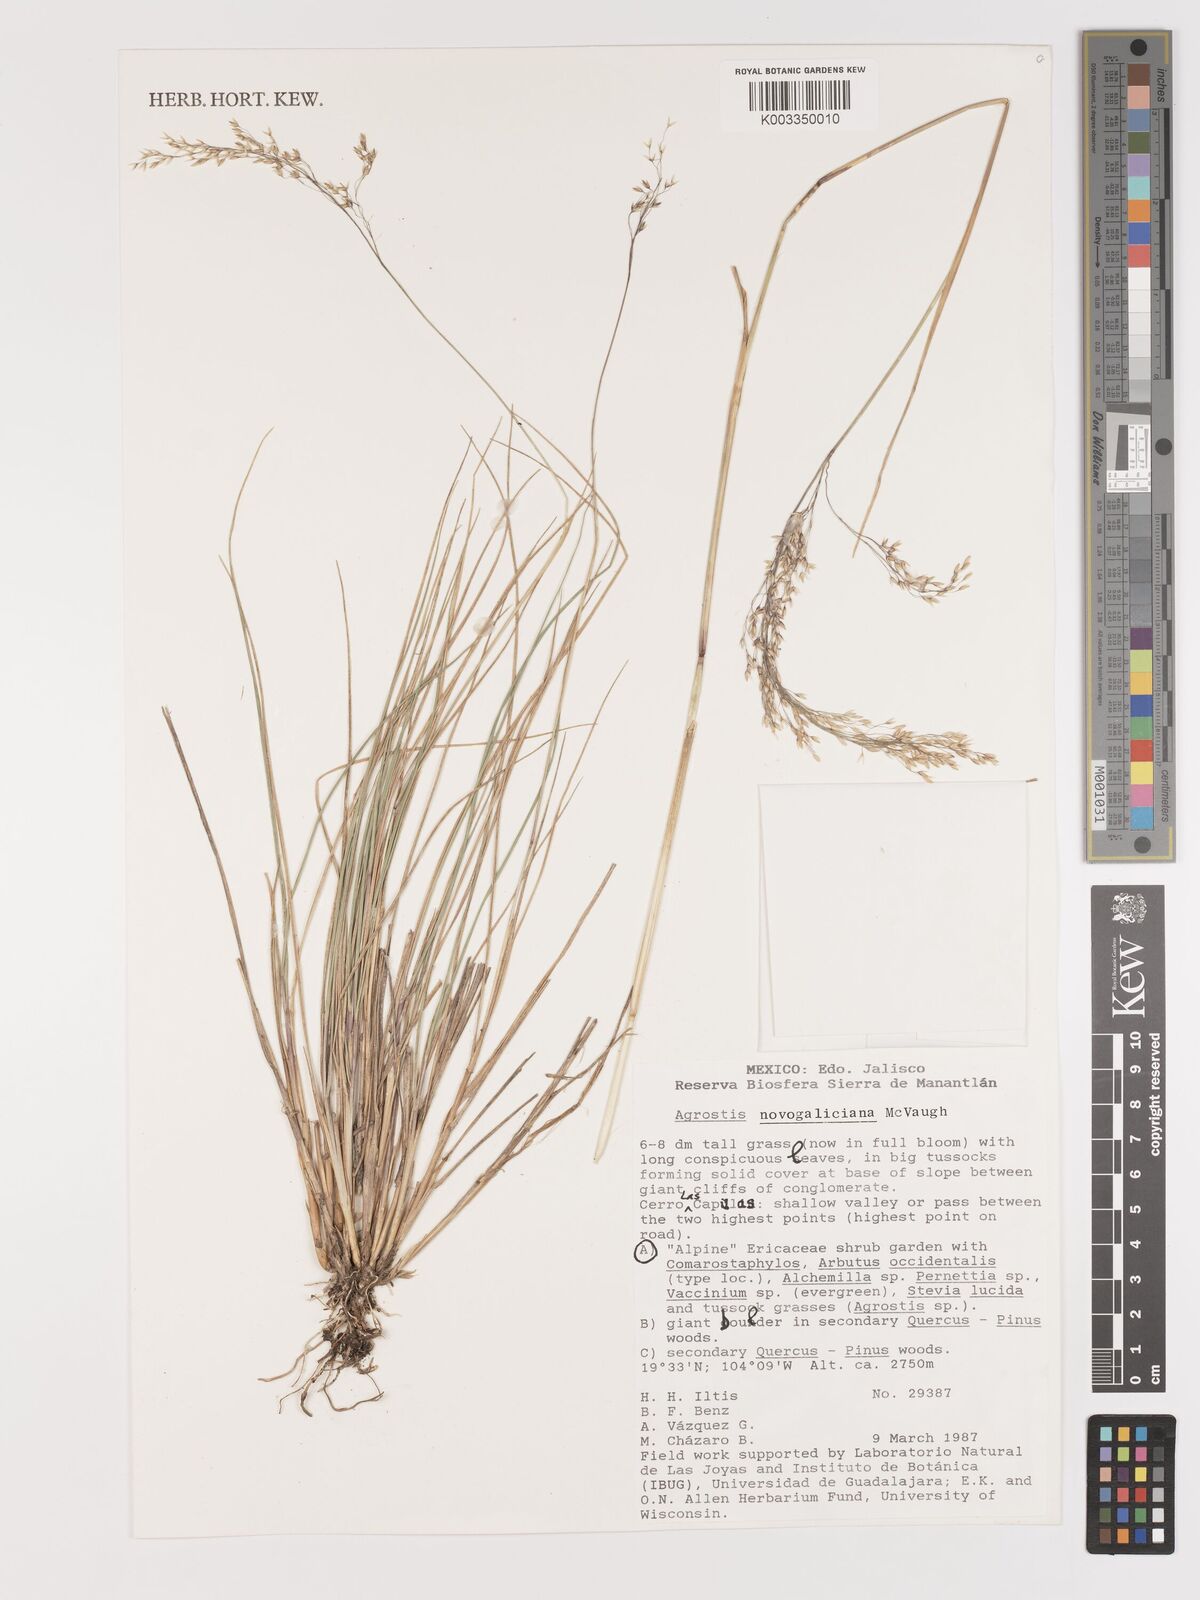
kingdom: Plantae
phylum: Tracheophyta
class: Liliopsida
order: Poales
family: Poaceae
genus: Agrostis
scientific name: Agrostis novogaliciana
